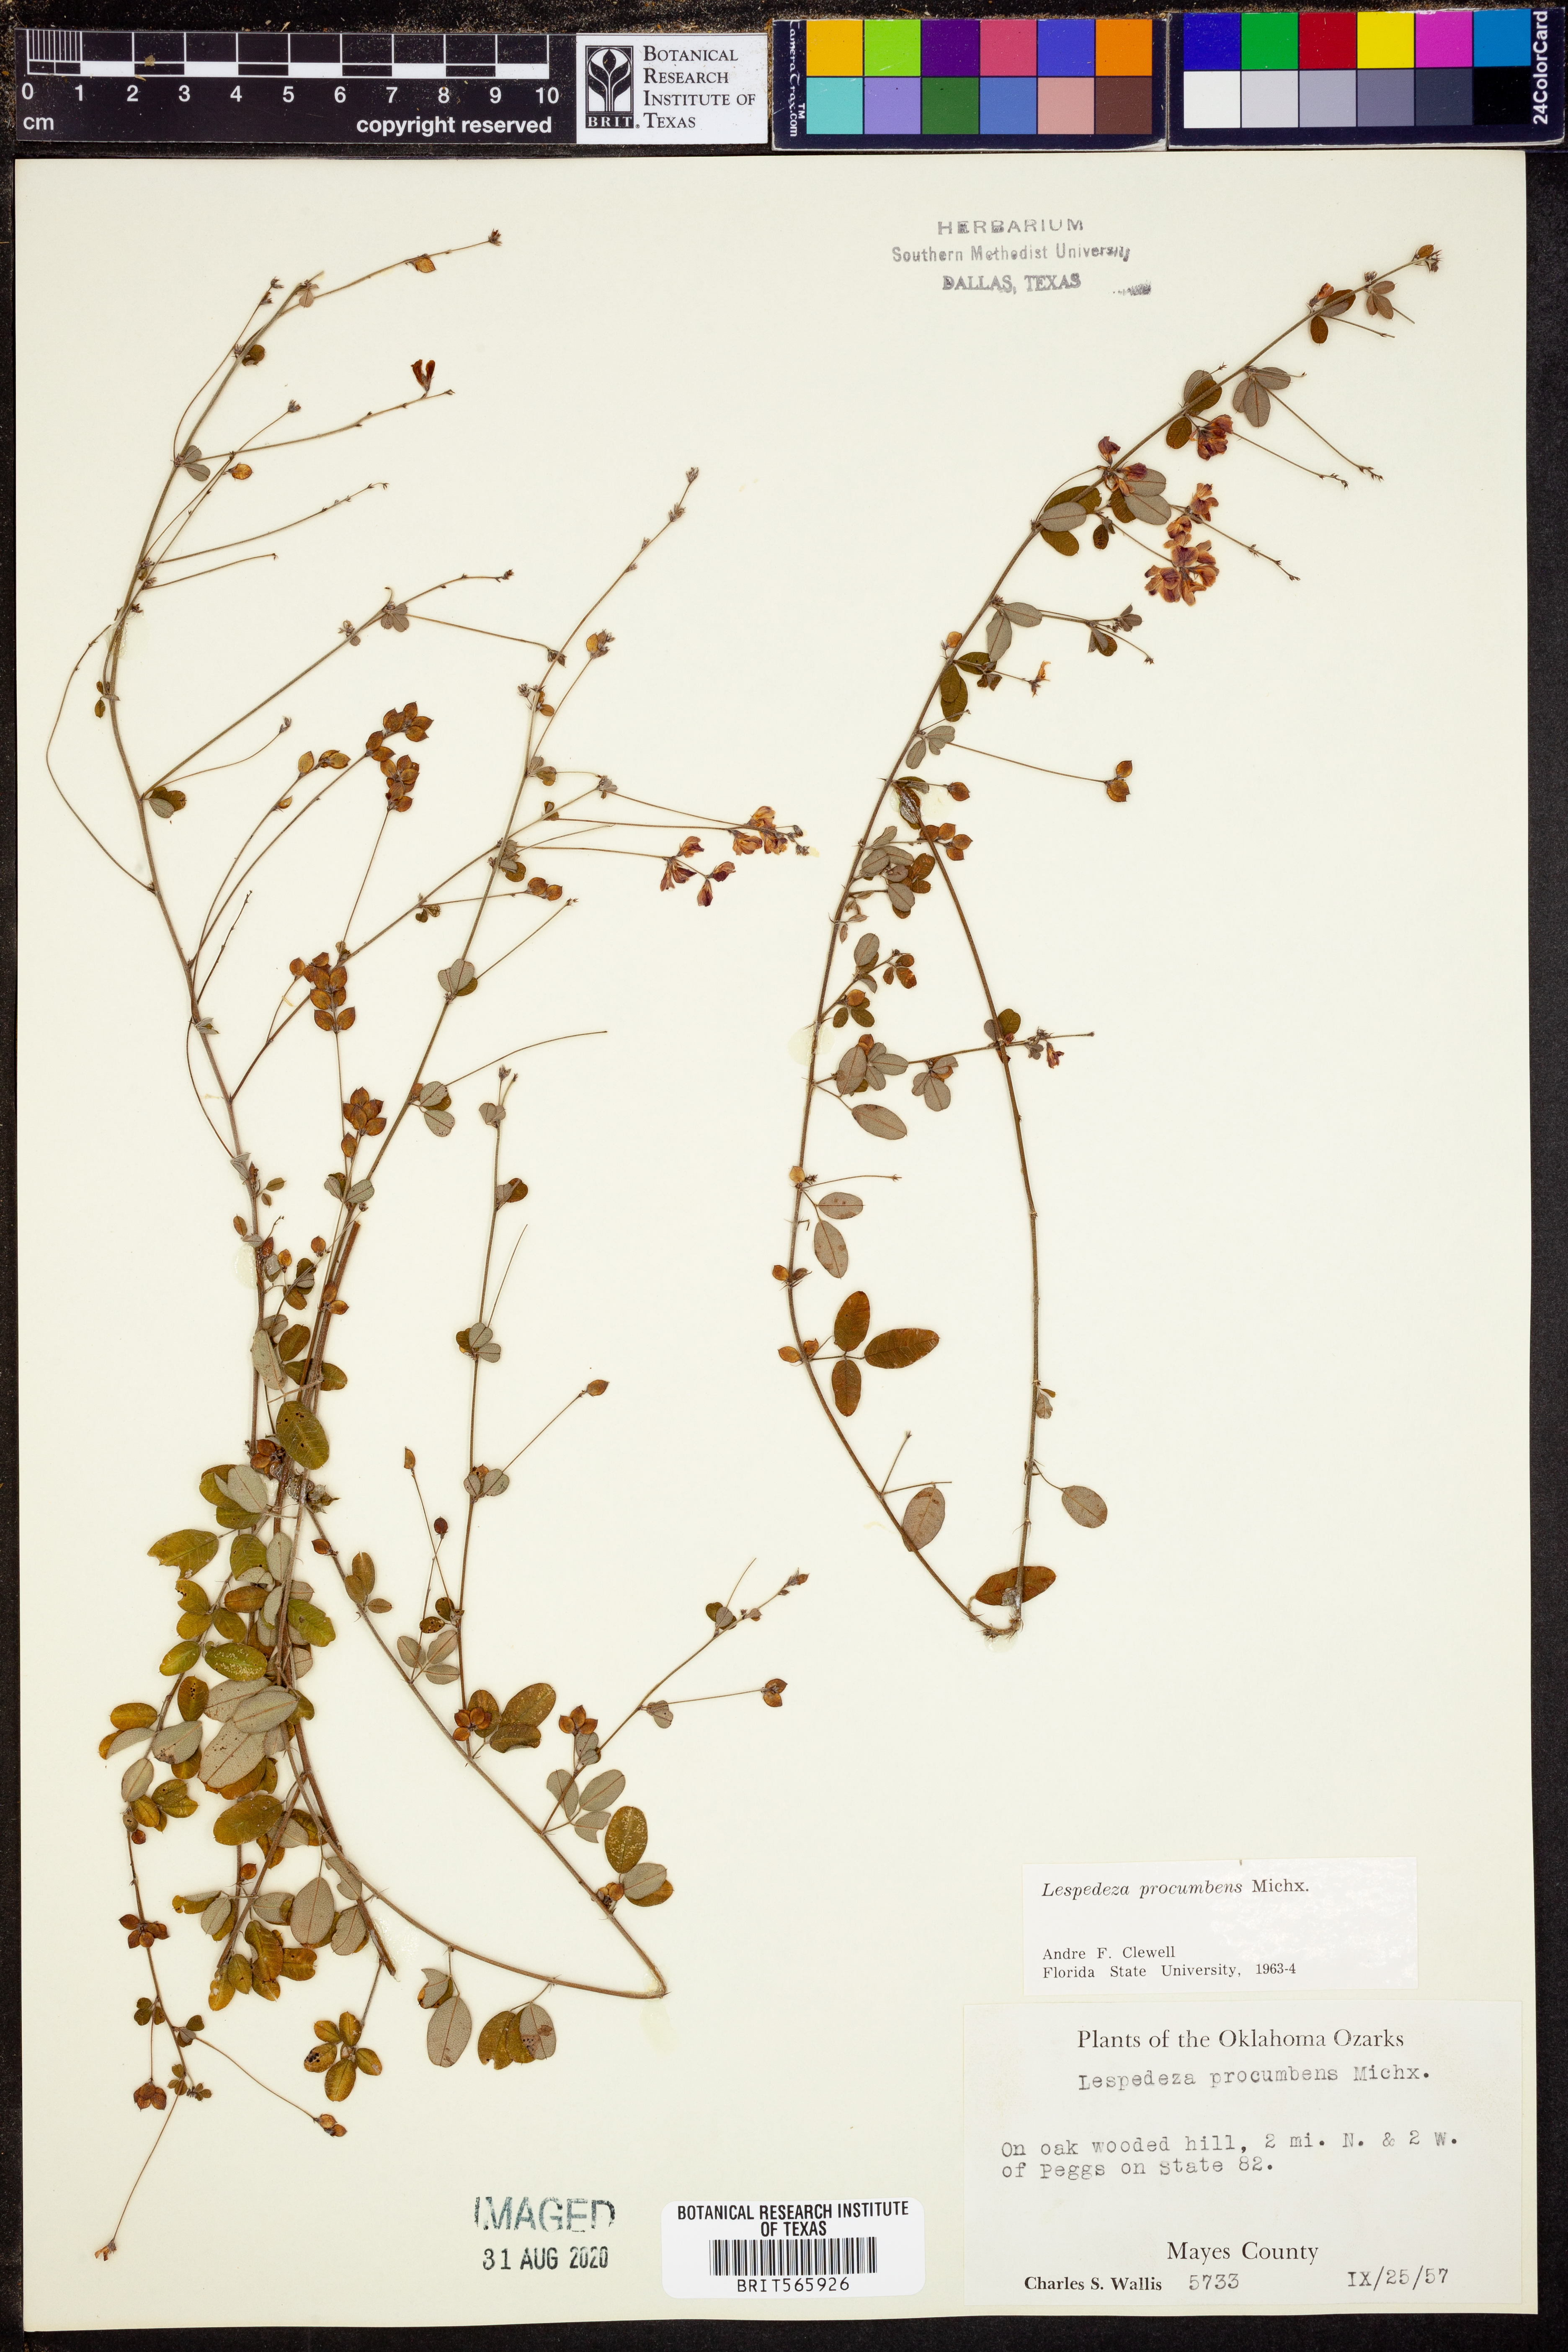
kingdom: Plantae
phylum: Tracheophyta
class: Magnoliopsida
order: Fabales
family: Fabaceae
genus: Lespedeza
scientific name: Lespedeza procumbens
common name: Downy trailing bush-clover
